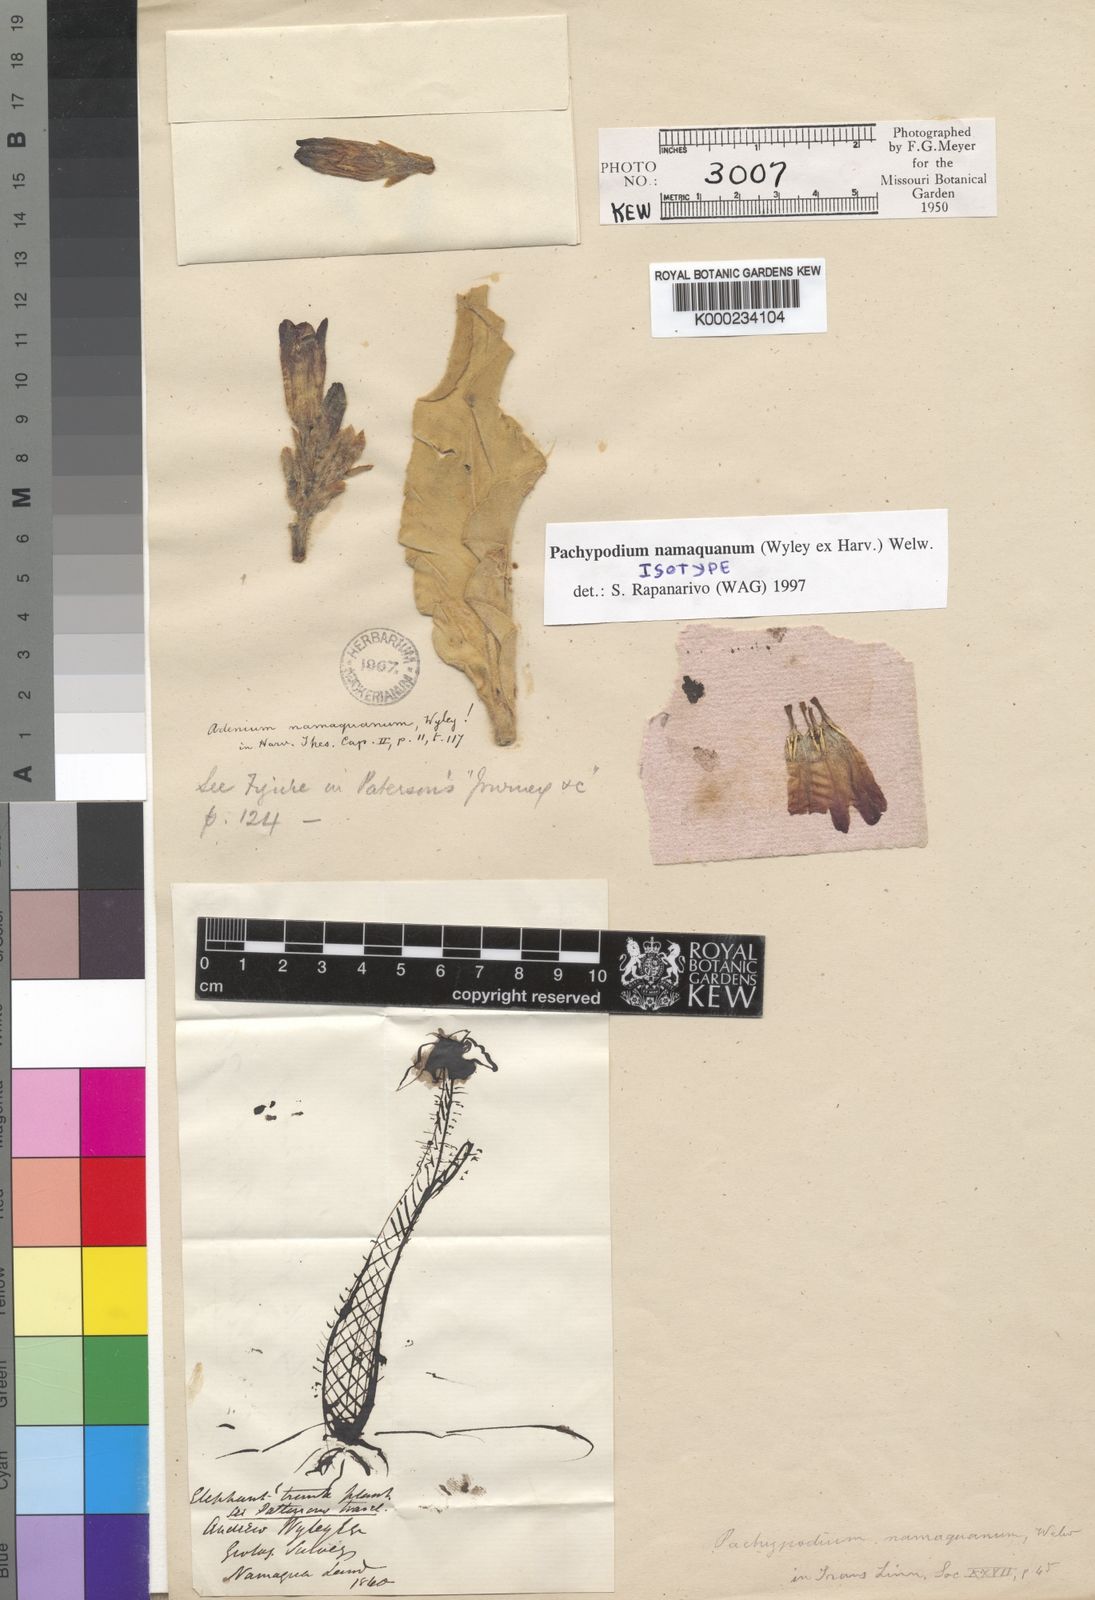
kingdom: Plantae
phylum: Tracheophyta
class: Magnoliopsida
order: Gentianales
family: Apocynaceae
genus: Pachypodium
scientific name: Pachypodium namaquanum
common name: Elephant's trunk
